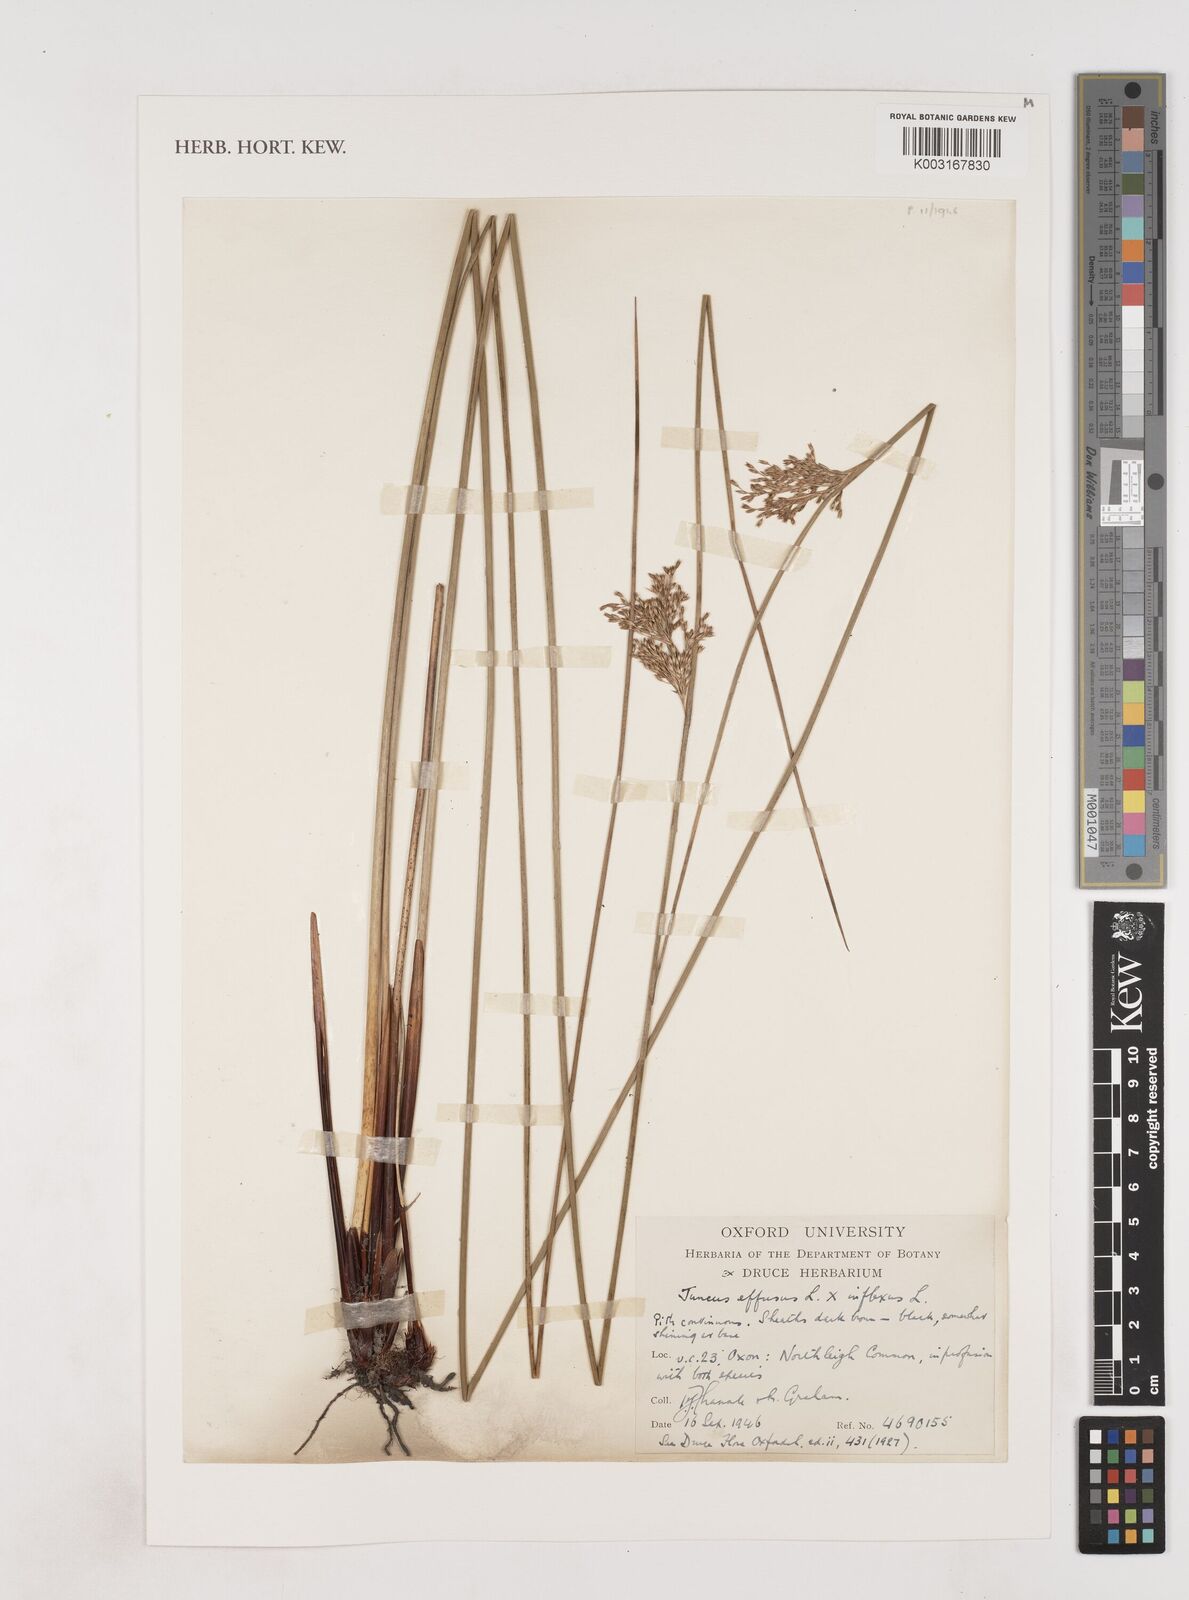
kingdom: Plantae
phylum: Tracheophyta
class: Liliopsida
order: Poales
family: Juncaceae
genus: Juncus
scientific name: Juncus effusus
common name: Soft rush
